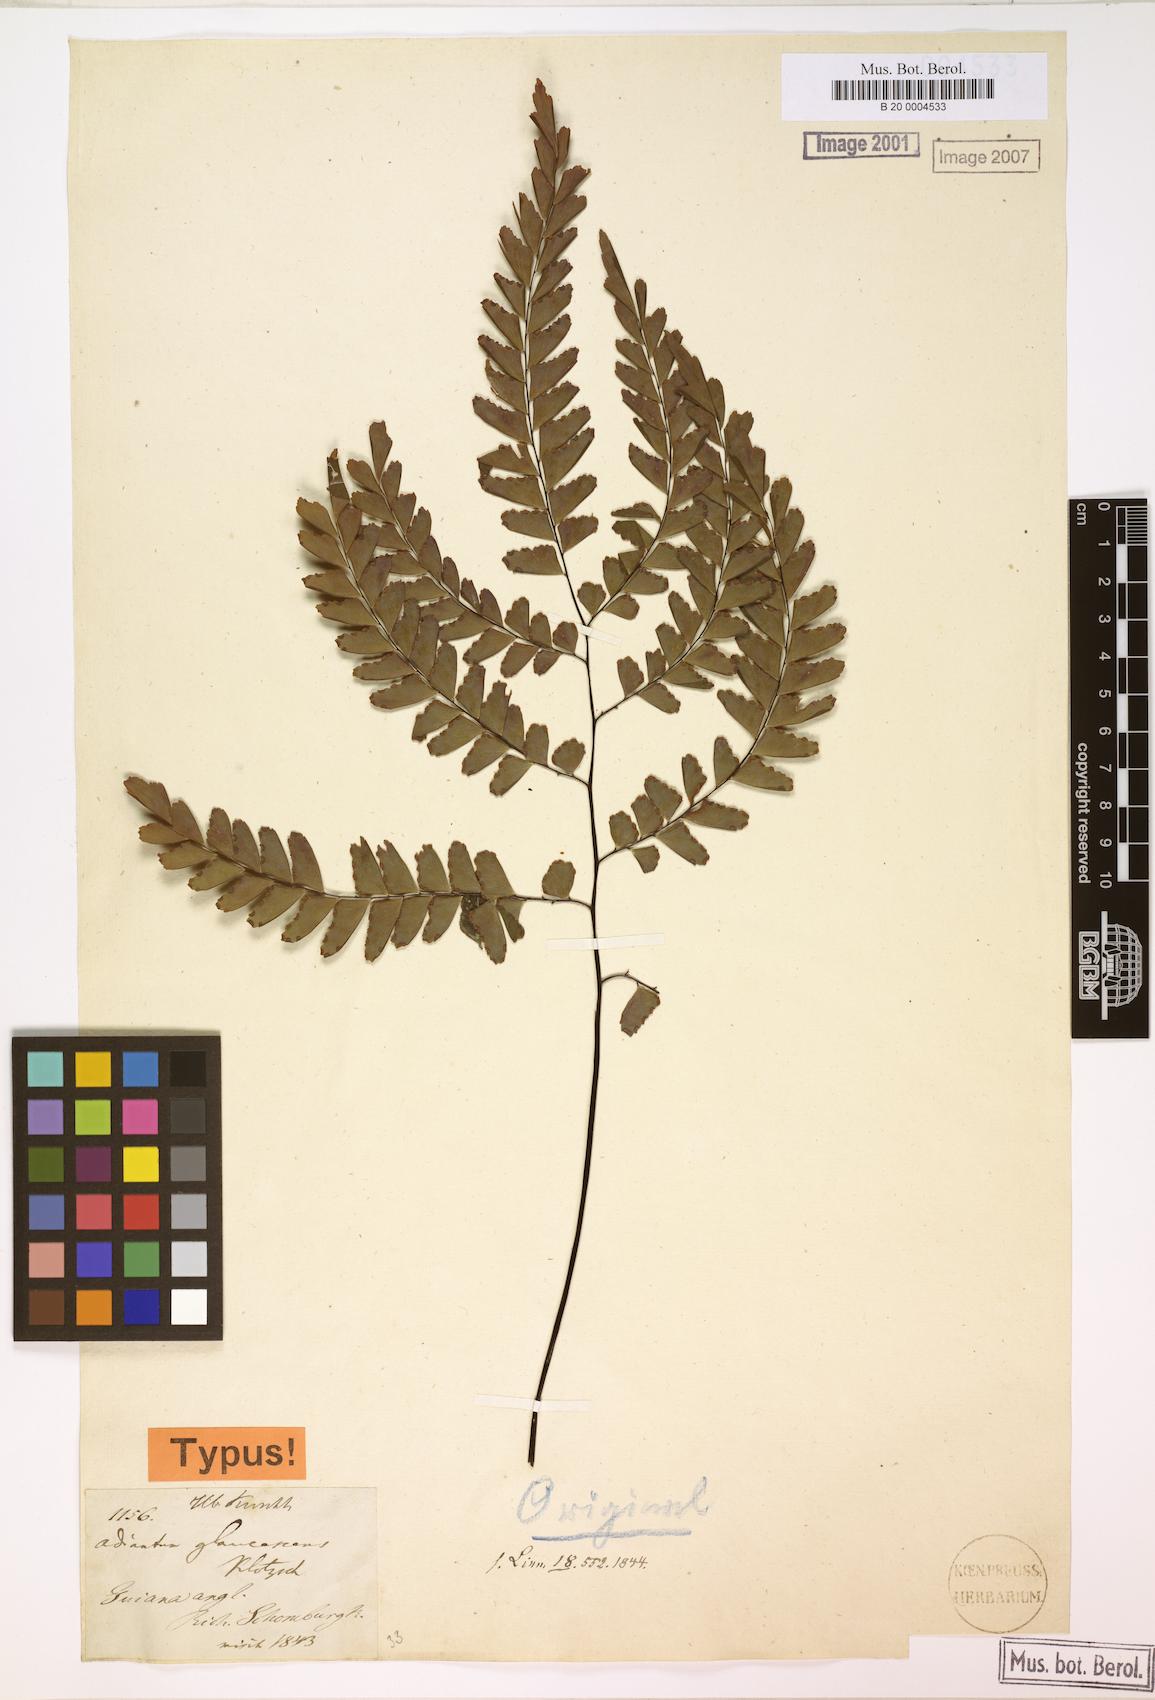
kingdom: Plantae
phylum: Tracheophyta
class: Polypodiopsida
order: Polypodiales
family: Pteridaceae
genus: Adiantum
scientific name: Adiantum glaucescens
